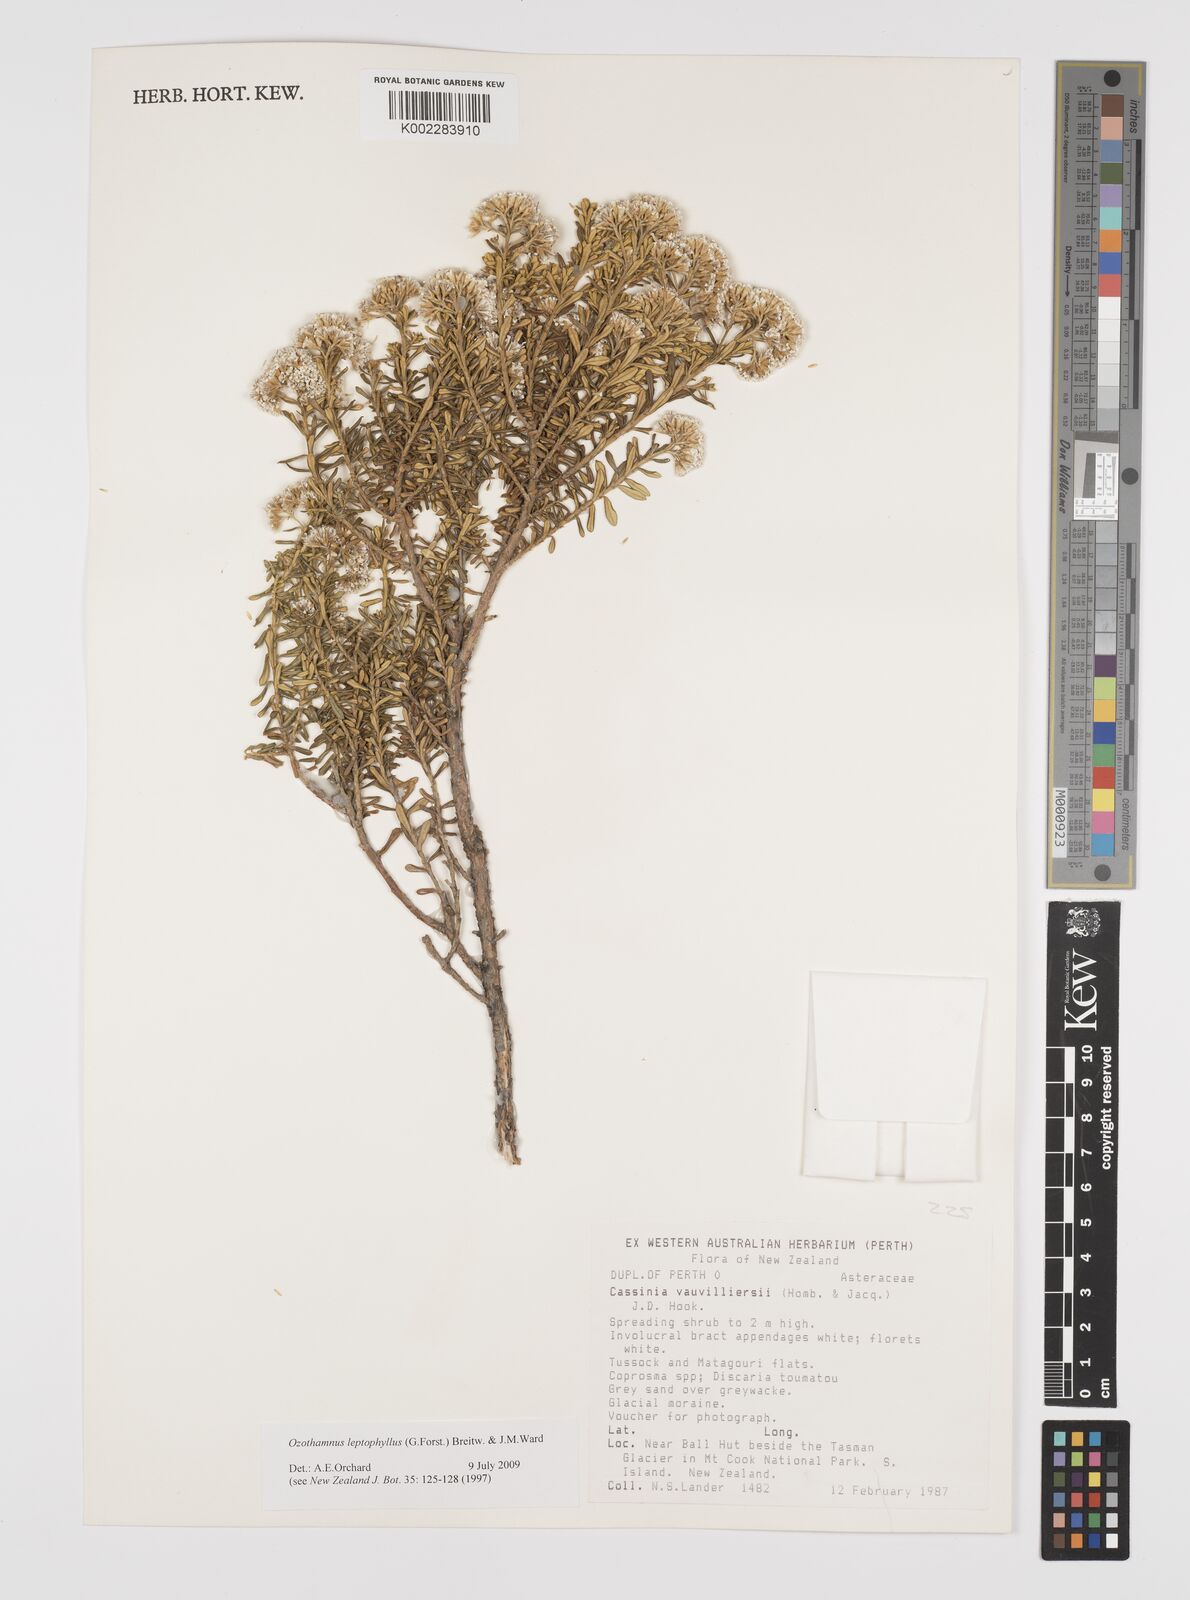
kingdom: Plantae
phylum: Tracheophyta
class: Magnoliopsida
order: Asterales
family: Asteraceae
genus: Ozothamnus
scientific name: Ozothamnus leptophyllus
